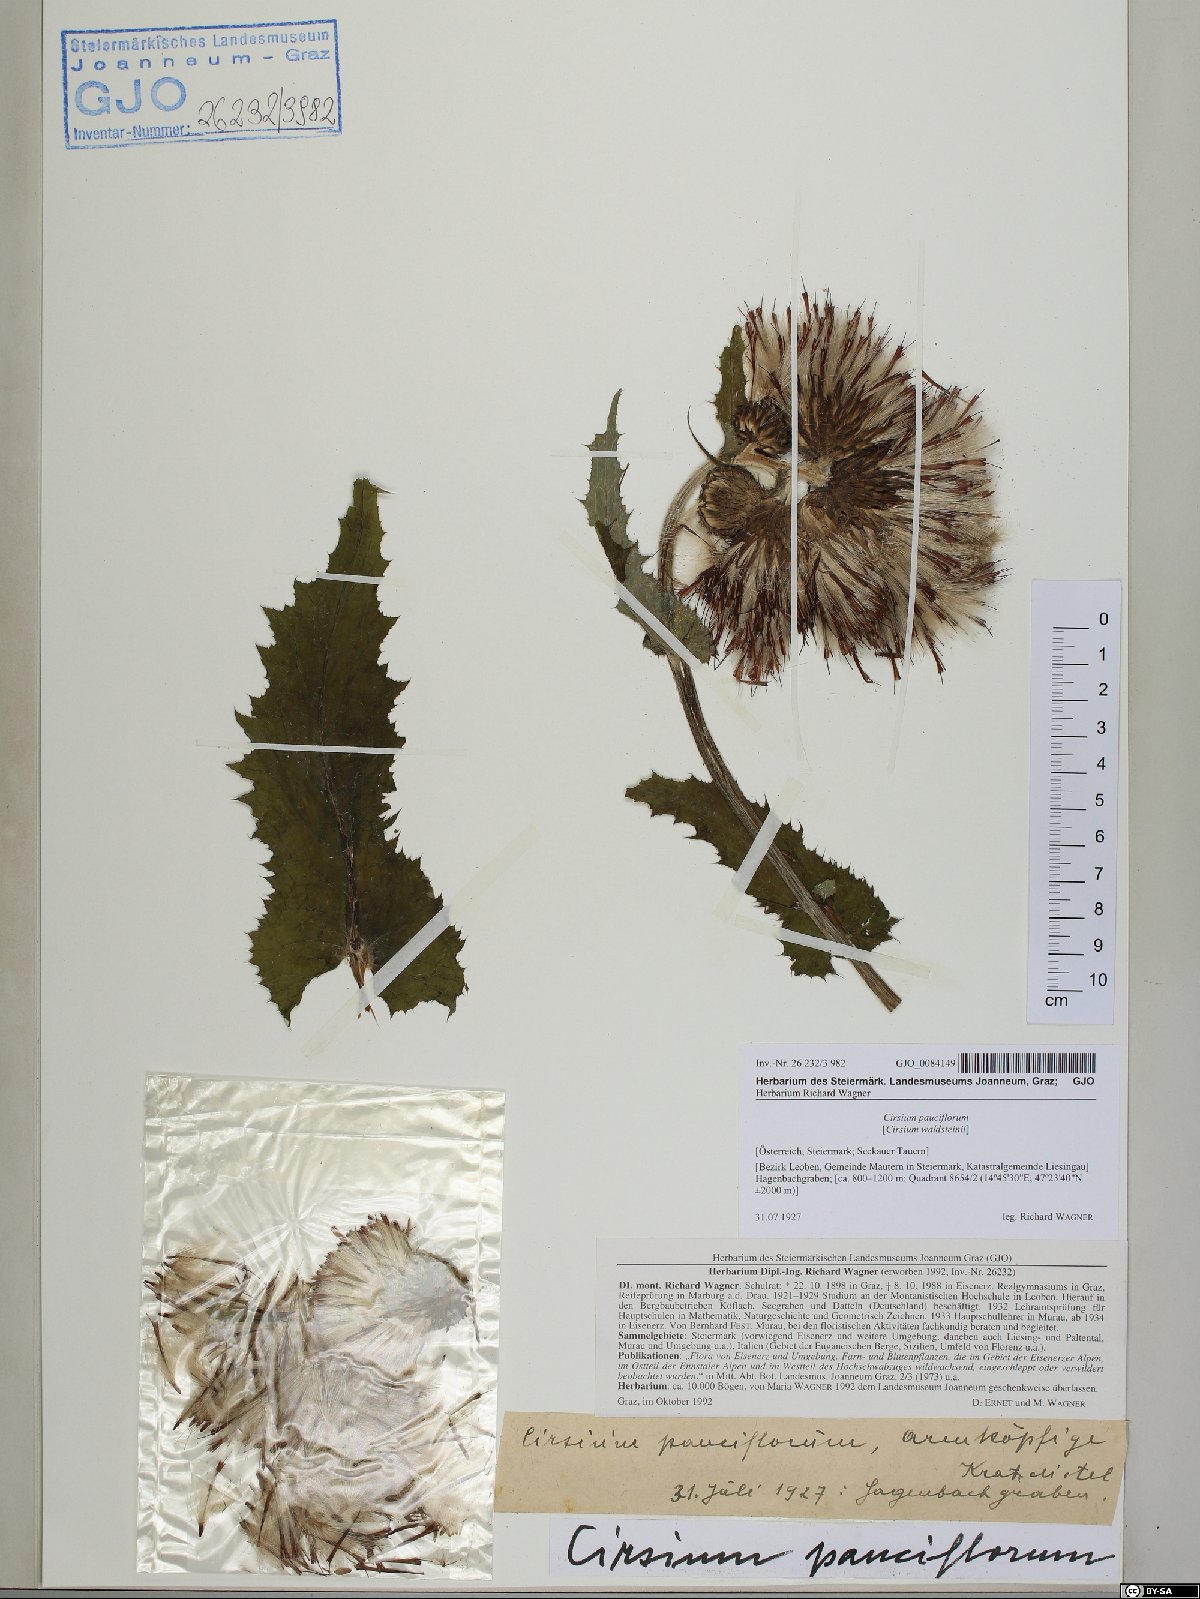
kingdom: Plantae
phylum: Tracheophyta
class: Magnoliopsida
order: Asterales
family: Asteraceae
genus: Cirsium
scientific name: Cirsium greimleri
